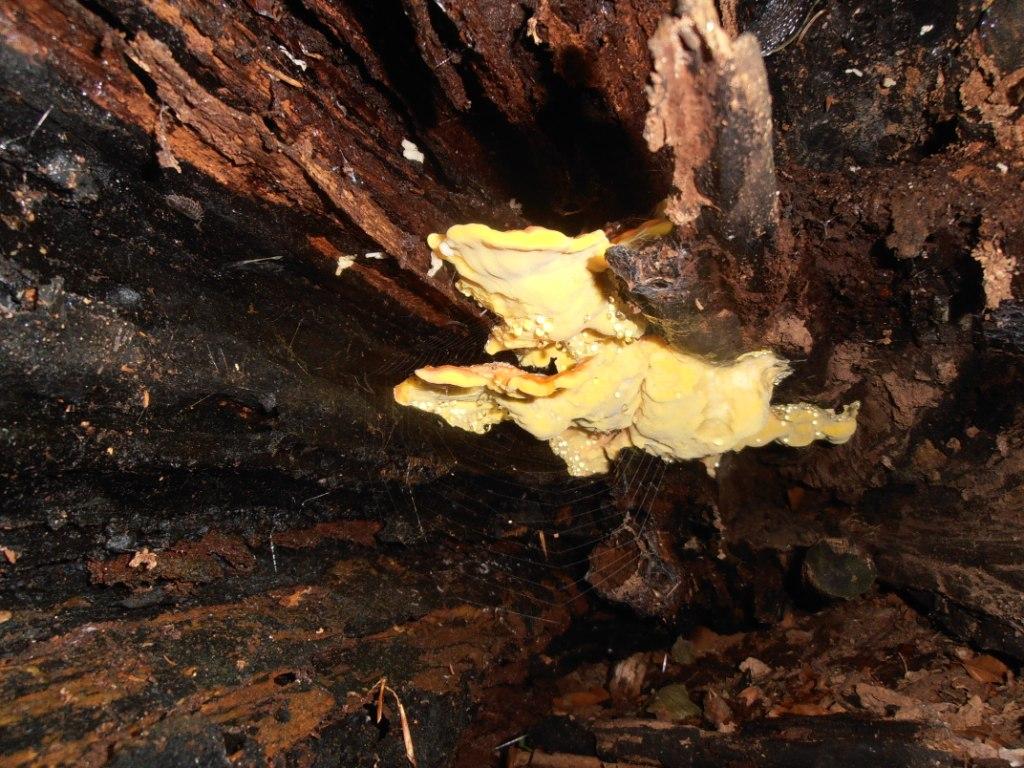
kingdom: Fungi
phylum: Basidiomycota
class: Agaricomycetes
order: Polyporales
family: Laetiporaceae
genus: Laetiporus
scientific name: Laetiporus sulphureus
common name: svovlporesvamp
